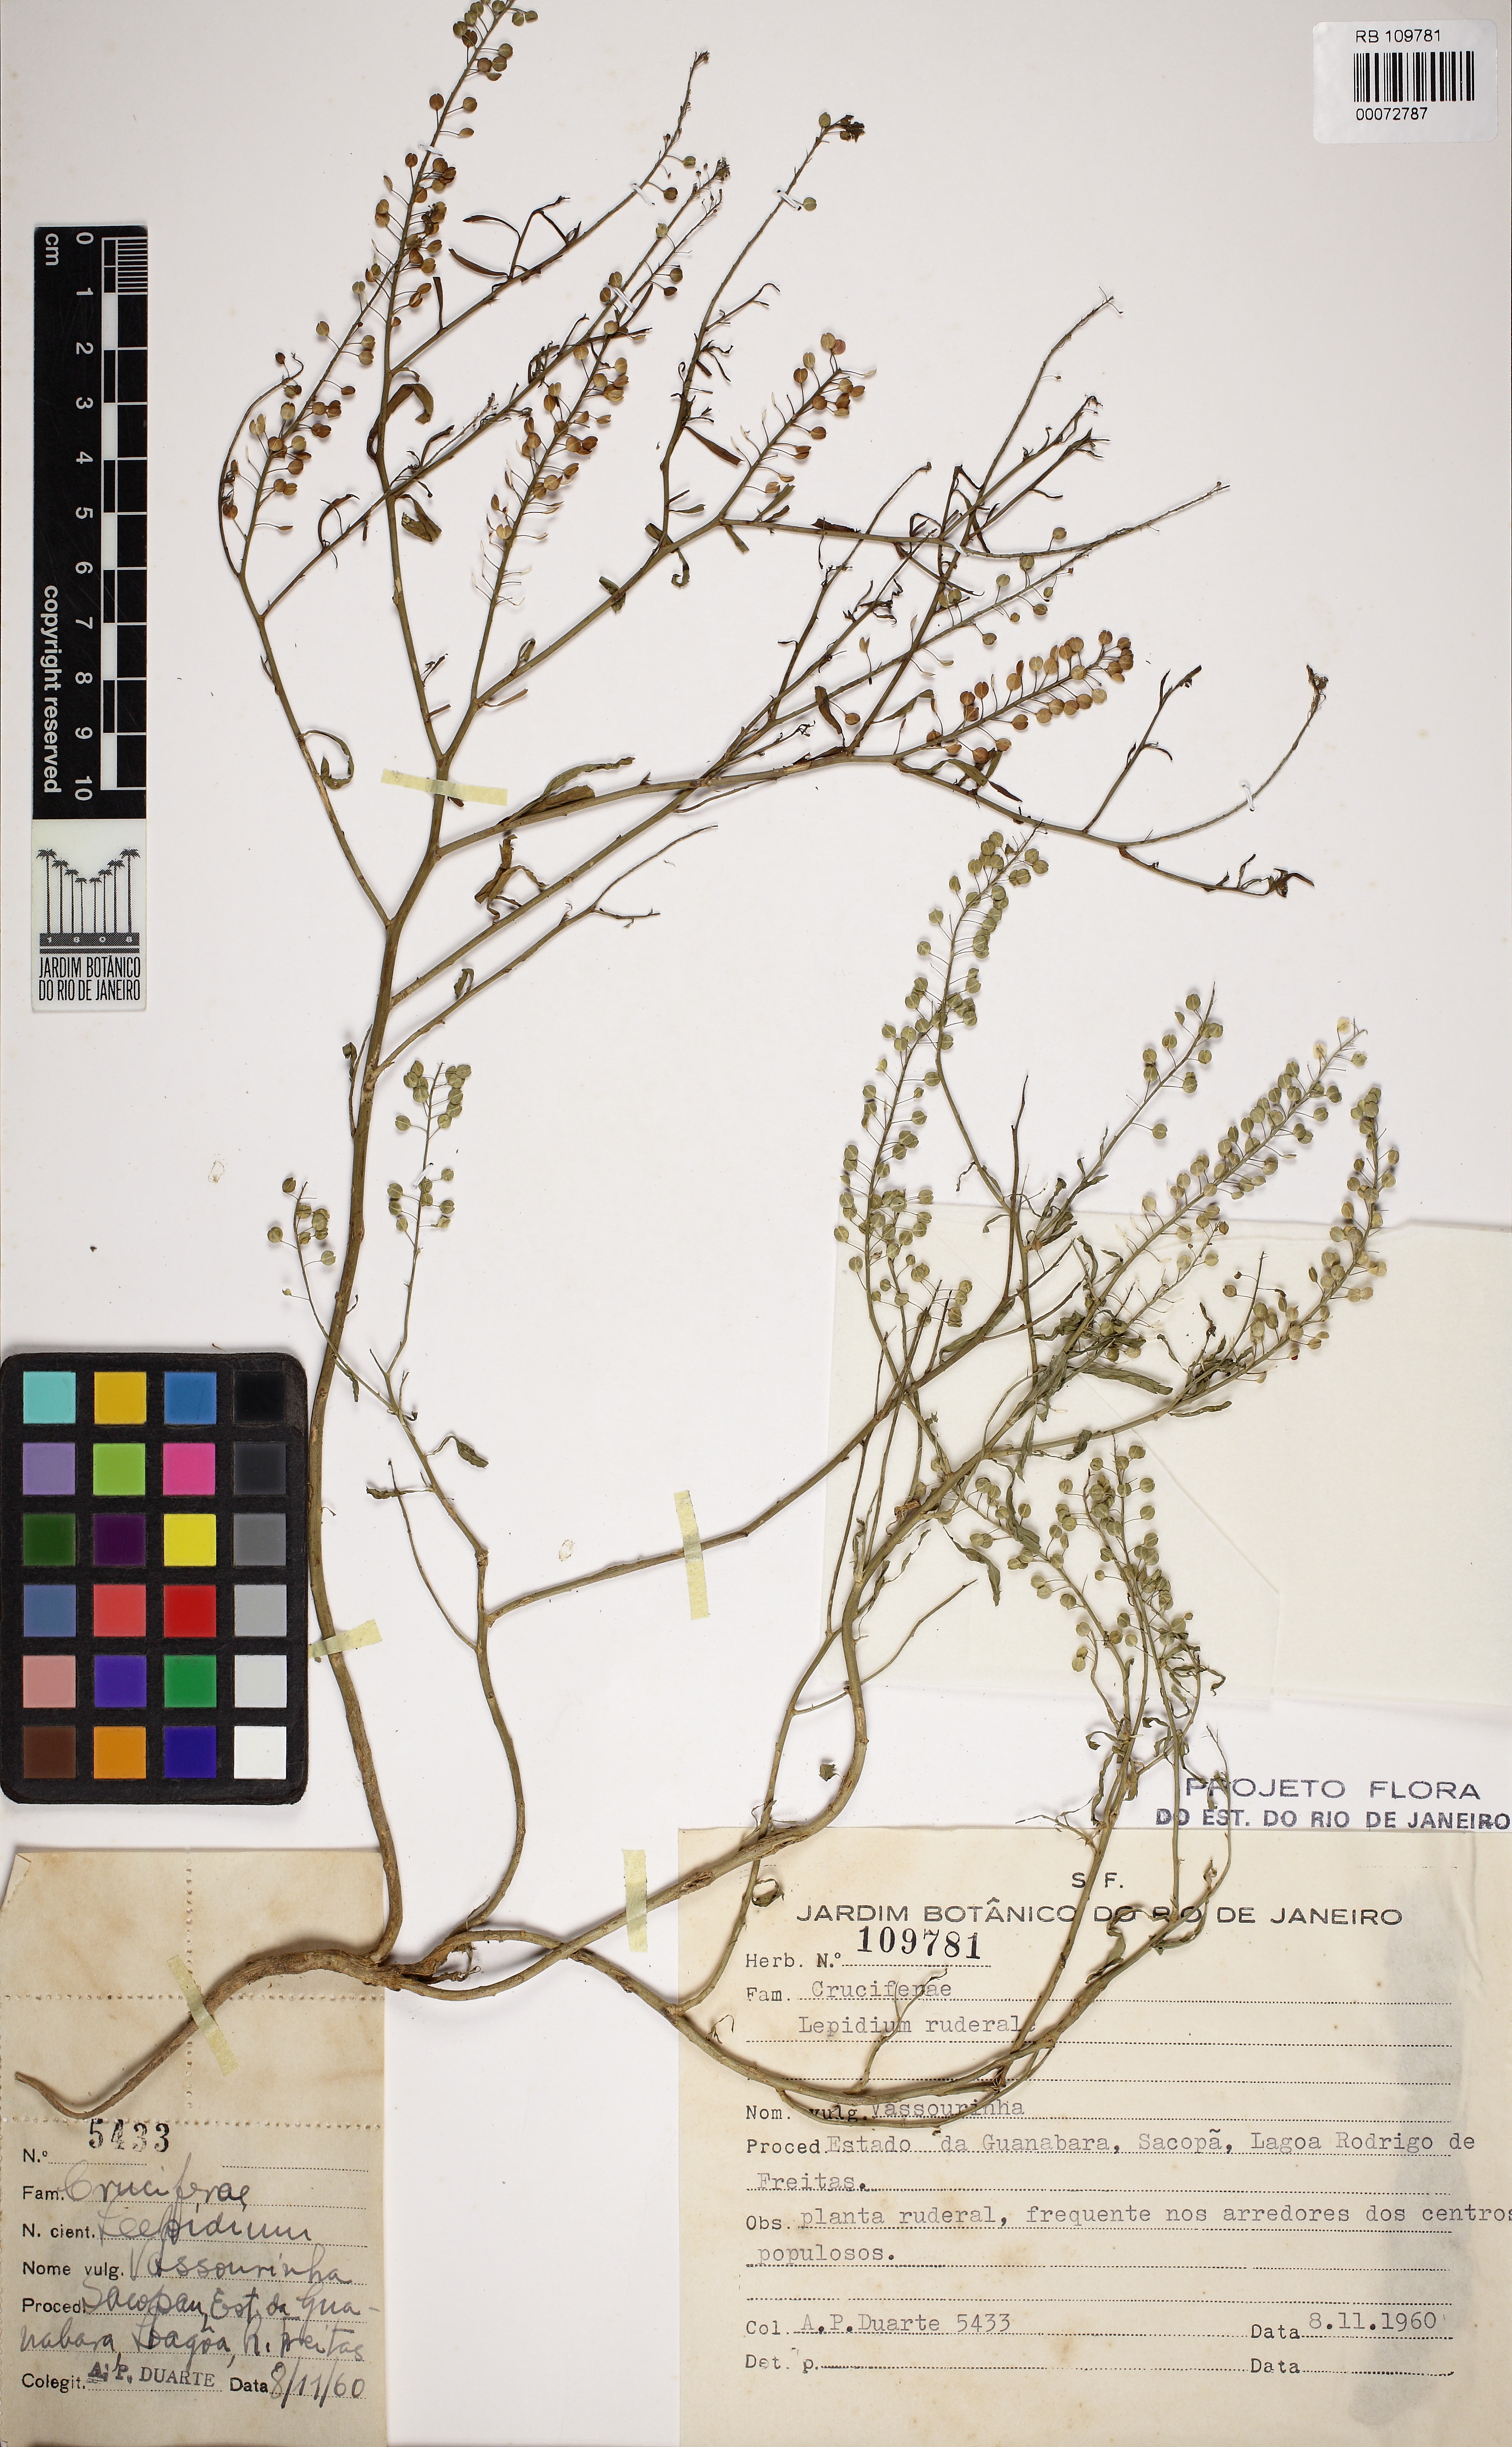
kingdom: Plantae
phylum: Tracheophyta
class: Magnoliopsida
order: Brassicales
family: Brassicaceae
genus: Lepidium
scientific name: Lepidium ruderale
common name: Narrow-leaved pepperwort
